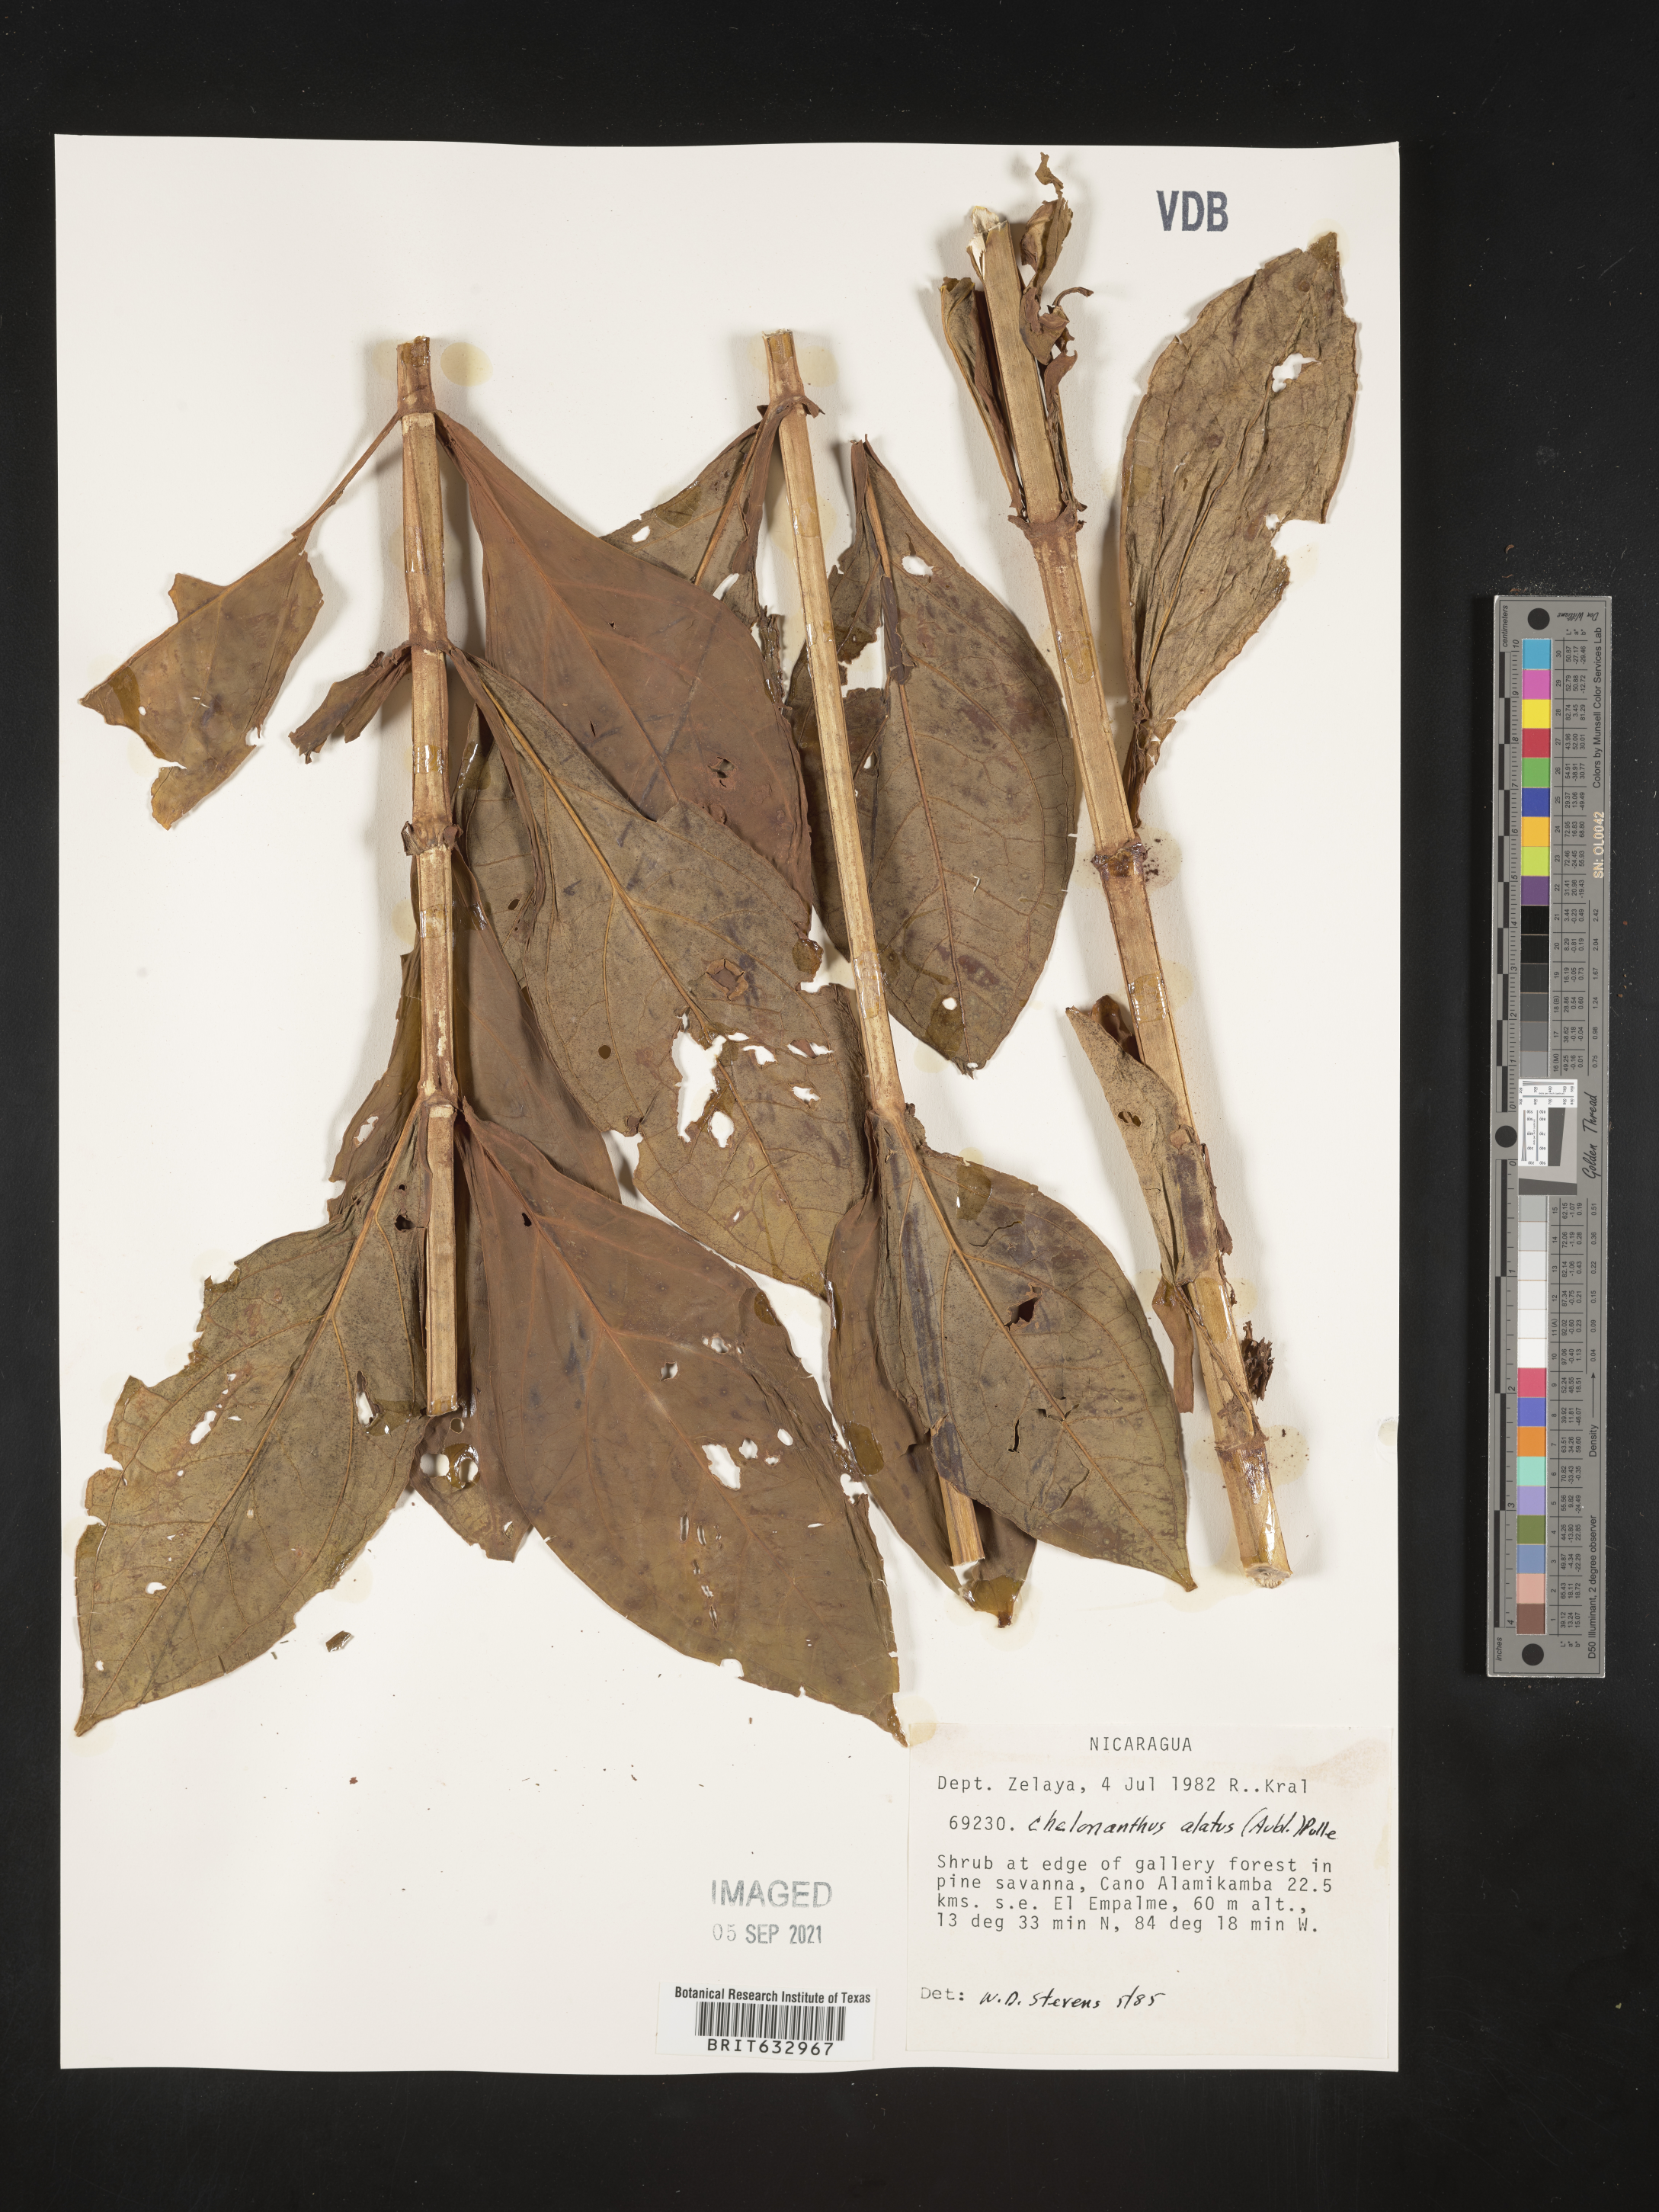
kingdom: Plantae
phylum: Tracheophyta
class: Magnoliopsida
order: Gentianales
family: Gentianaceae
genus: Chelonanthus
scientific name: Chelonanthus
